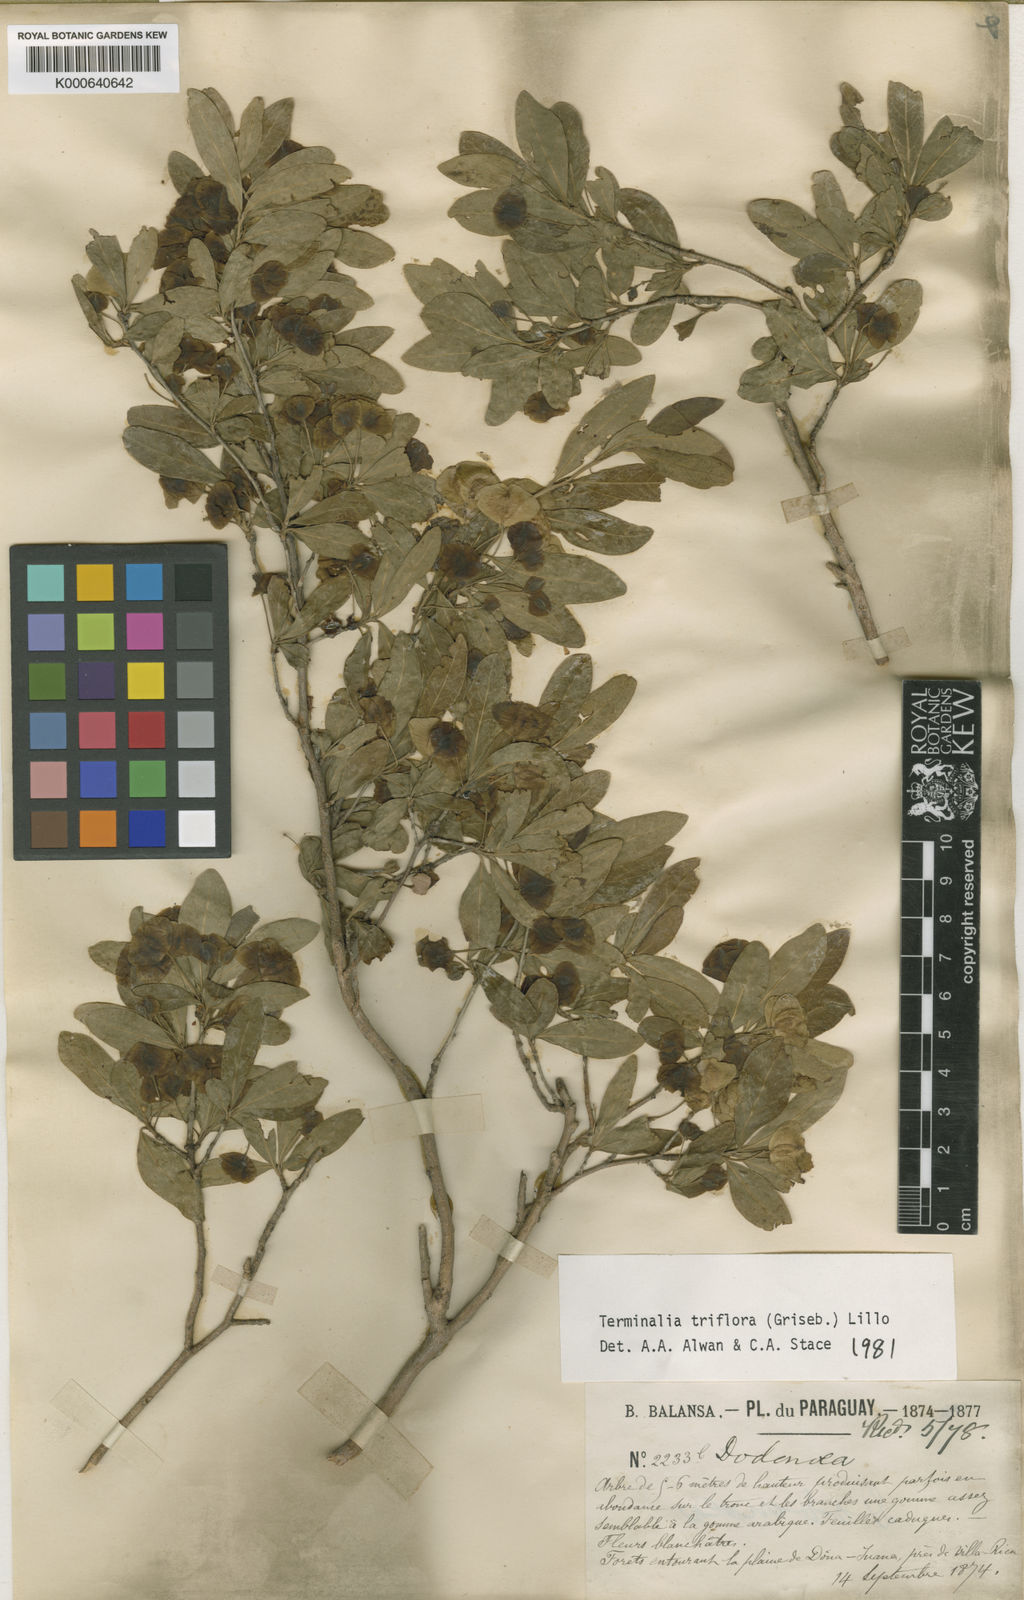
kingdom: Plantae
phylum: Tracheophyta
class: Magnoliopsida
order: Myrtales
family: Combretaceae
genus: Terminalia
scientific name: Terminalia triflora
